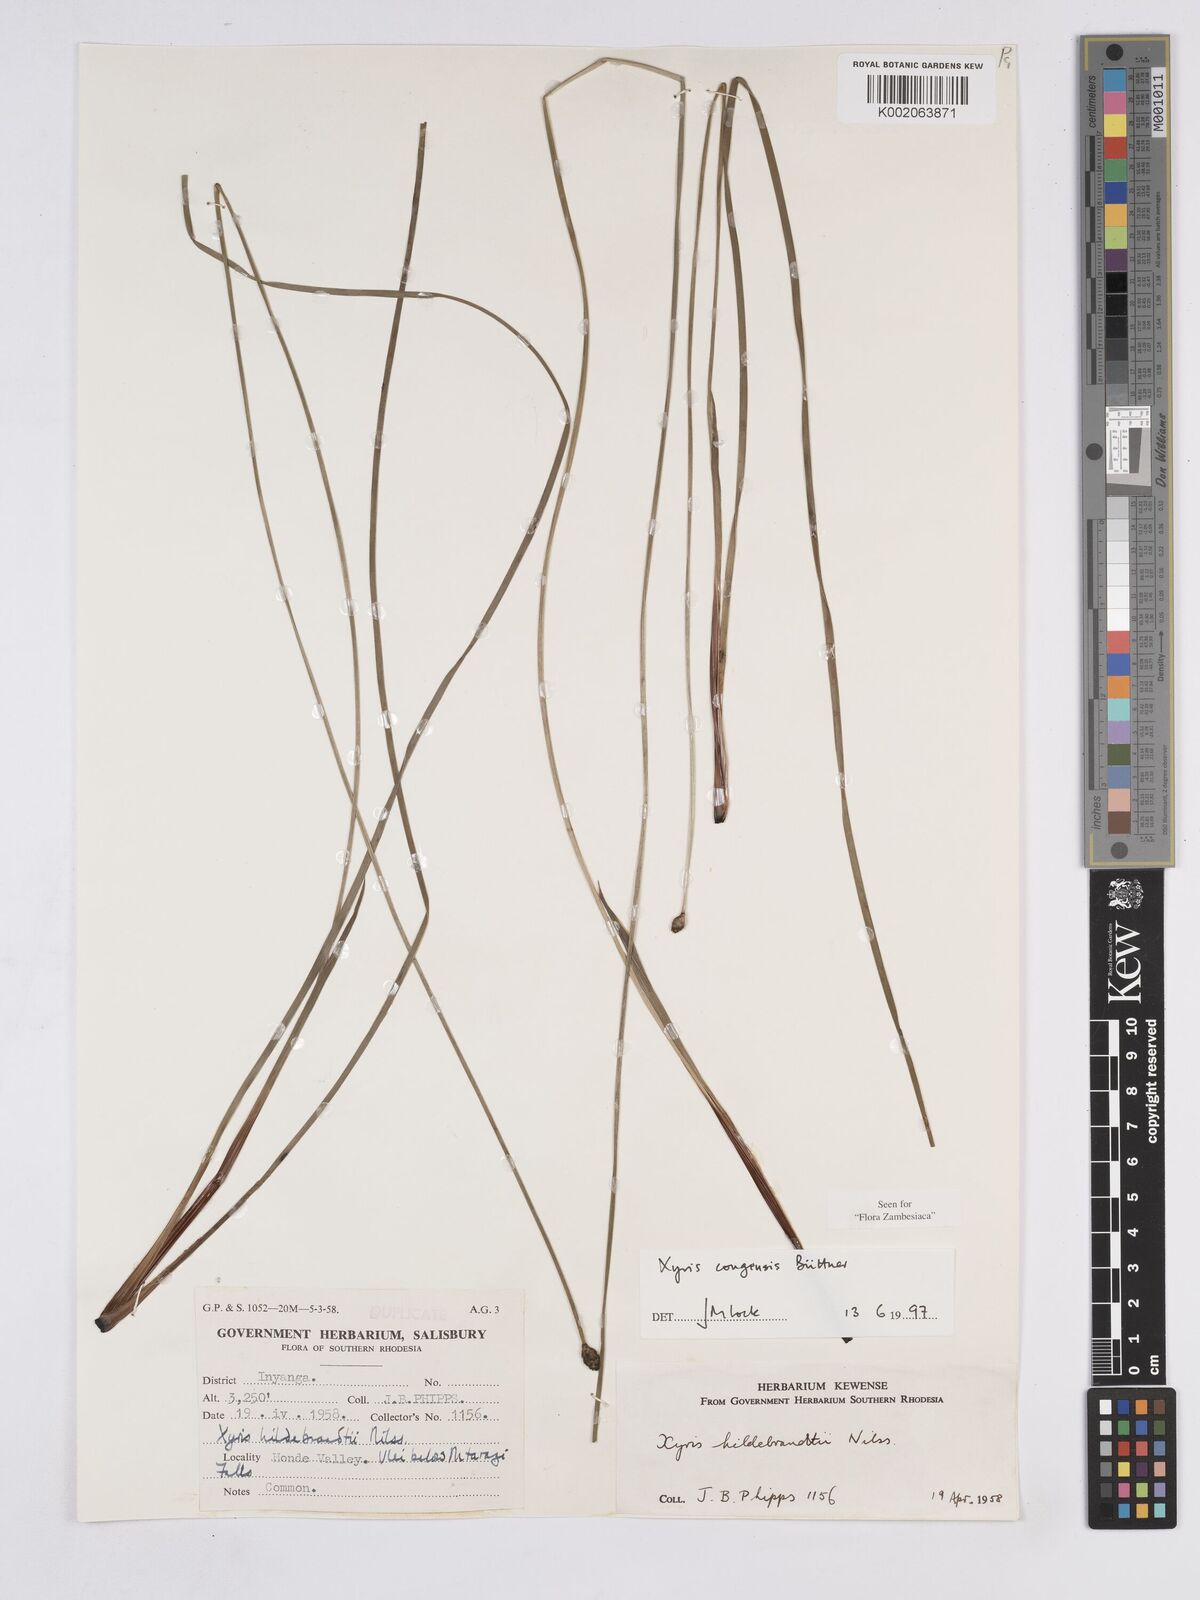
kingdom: Plantae
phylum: Tracheophyta
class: Liliopsida
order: Poales
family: Xyridaceae
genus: Xyris
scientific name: Xyris congensis
